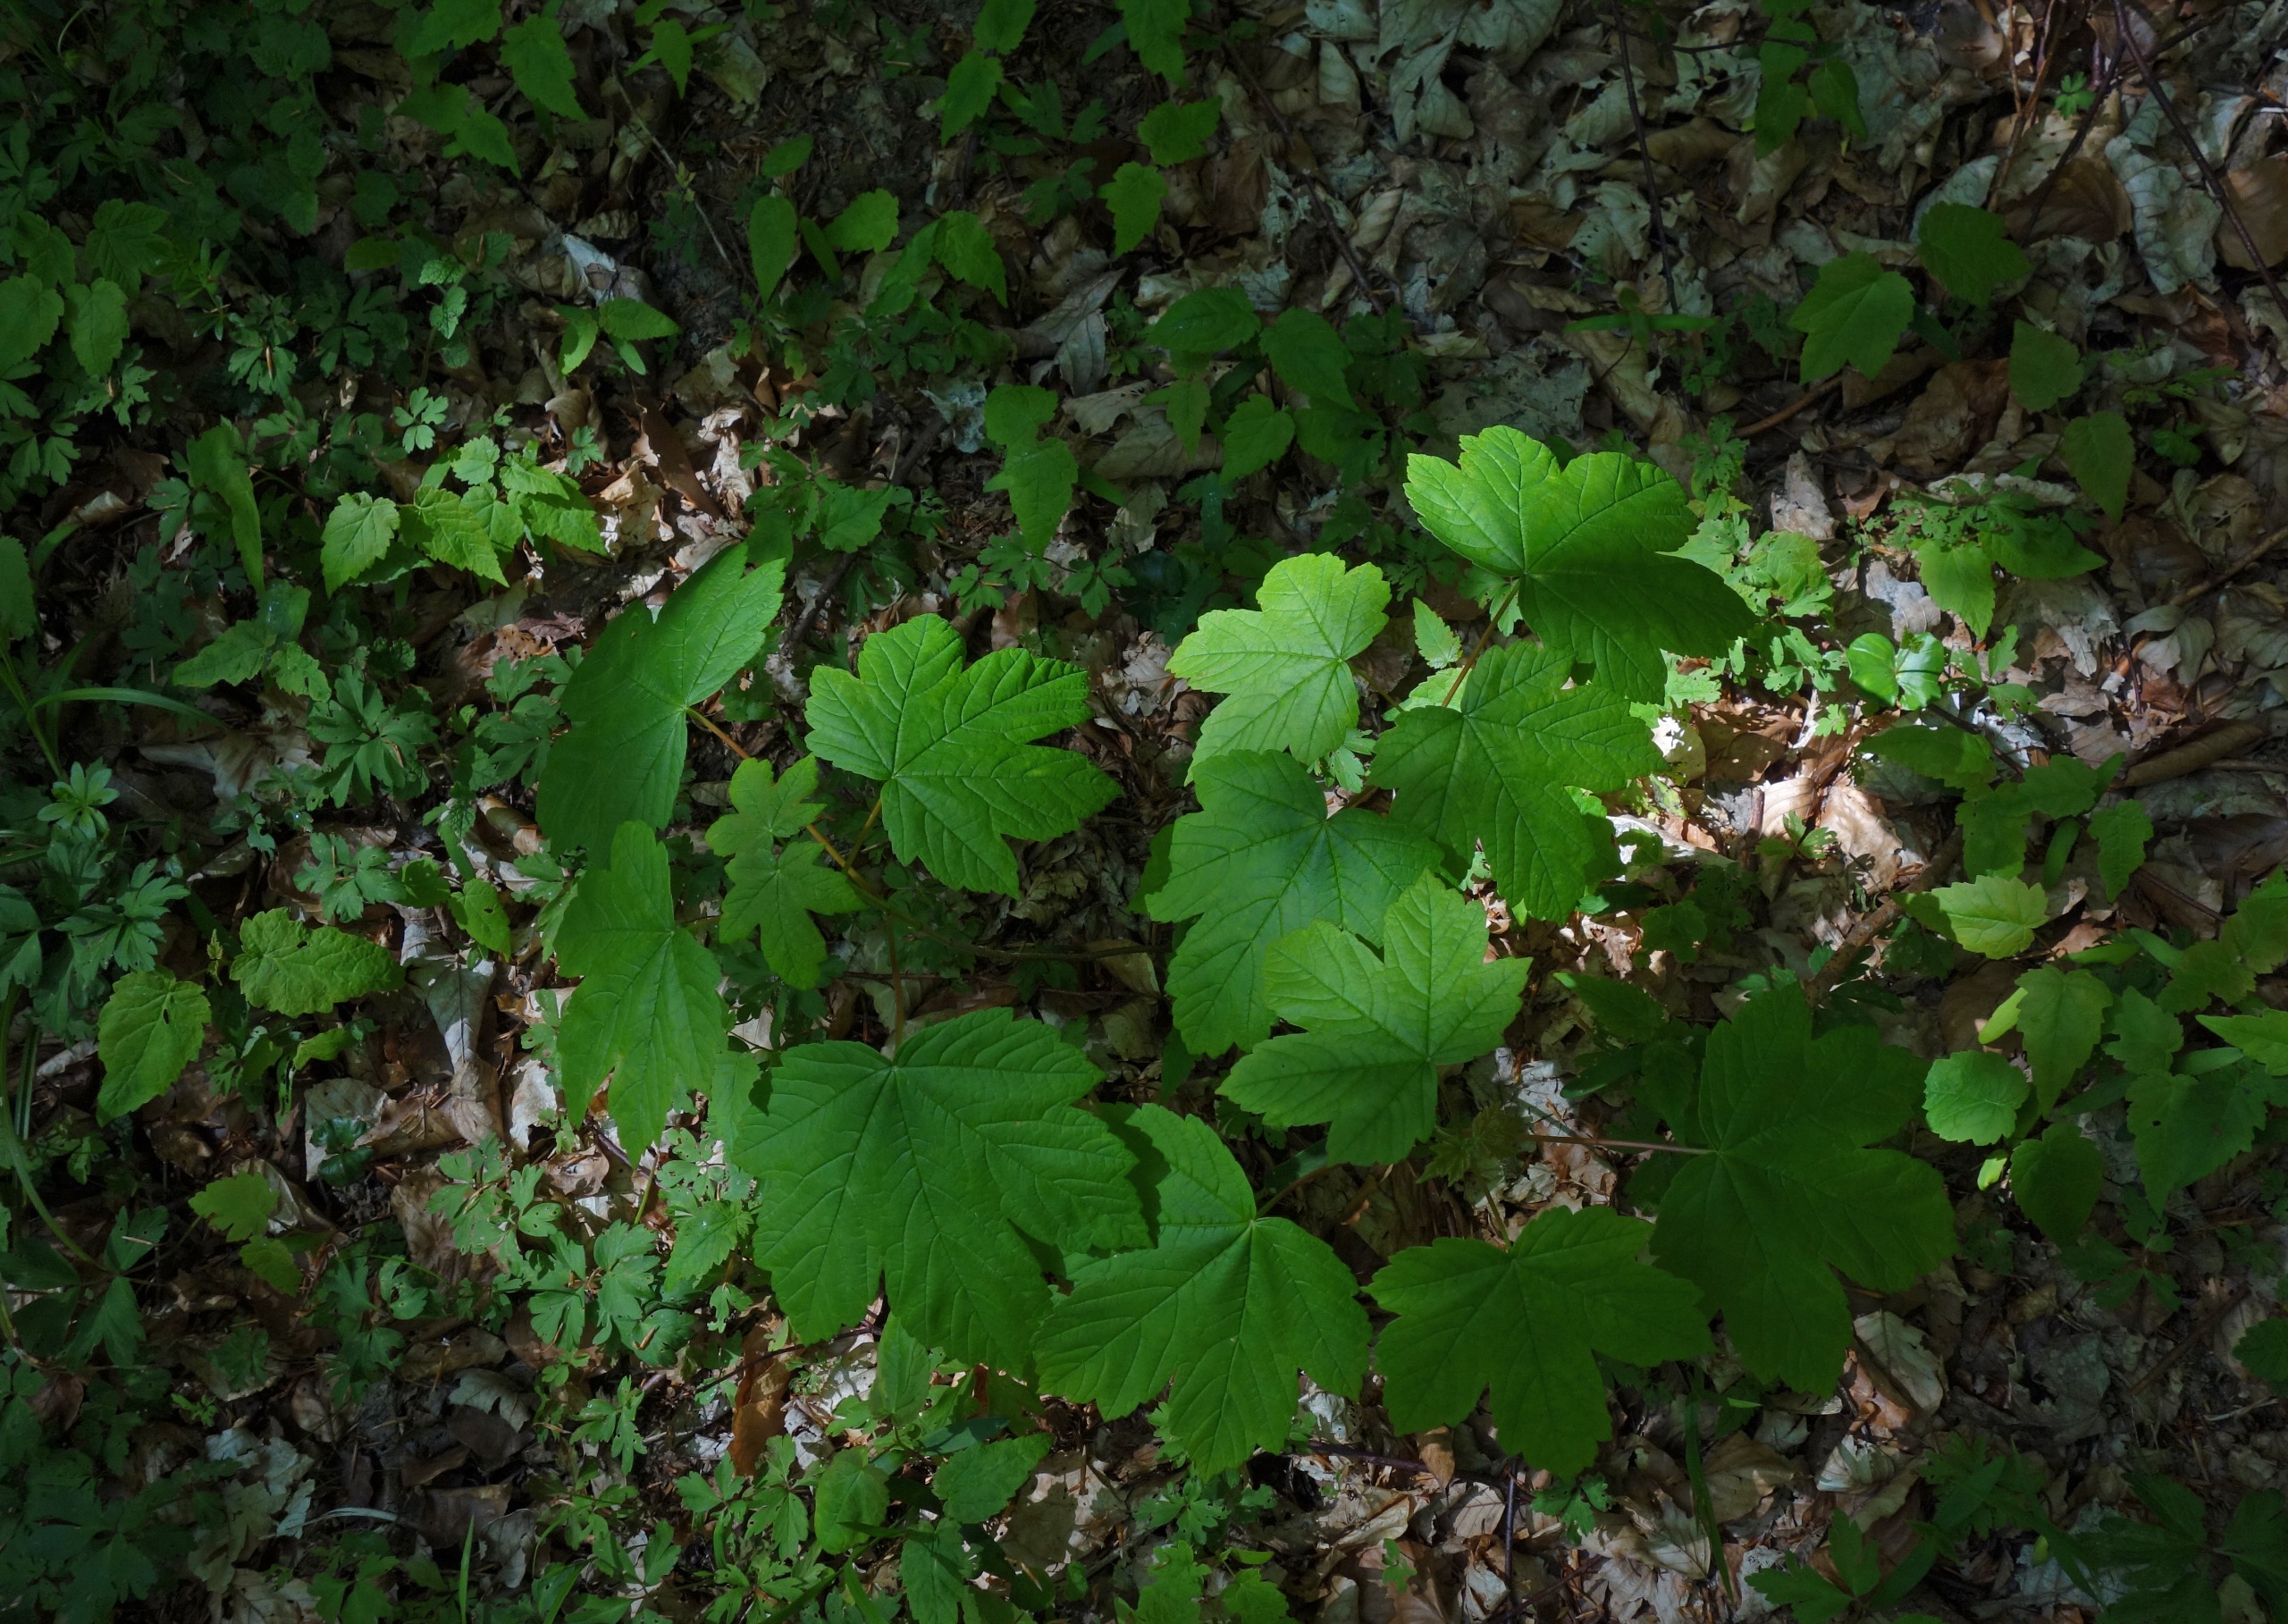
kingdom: Plantae
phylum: Tracheophyta
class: Magnoliopsida
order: Sapindales
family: Sapindaceae
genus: Acer
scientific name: Acer pseudoplatanus
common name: Ahorn
